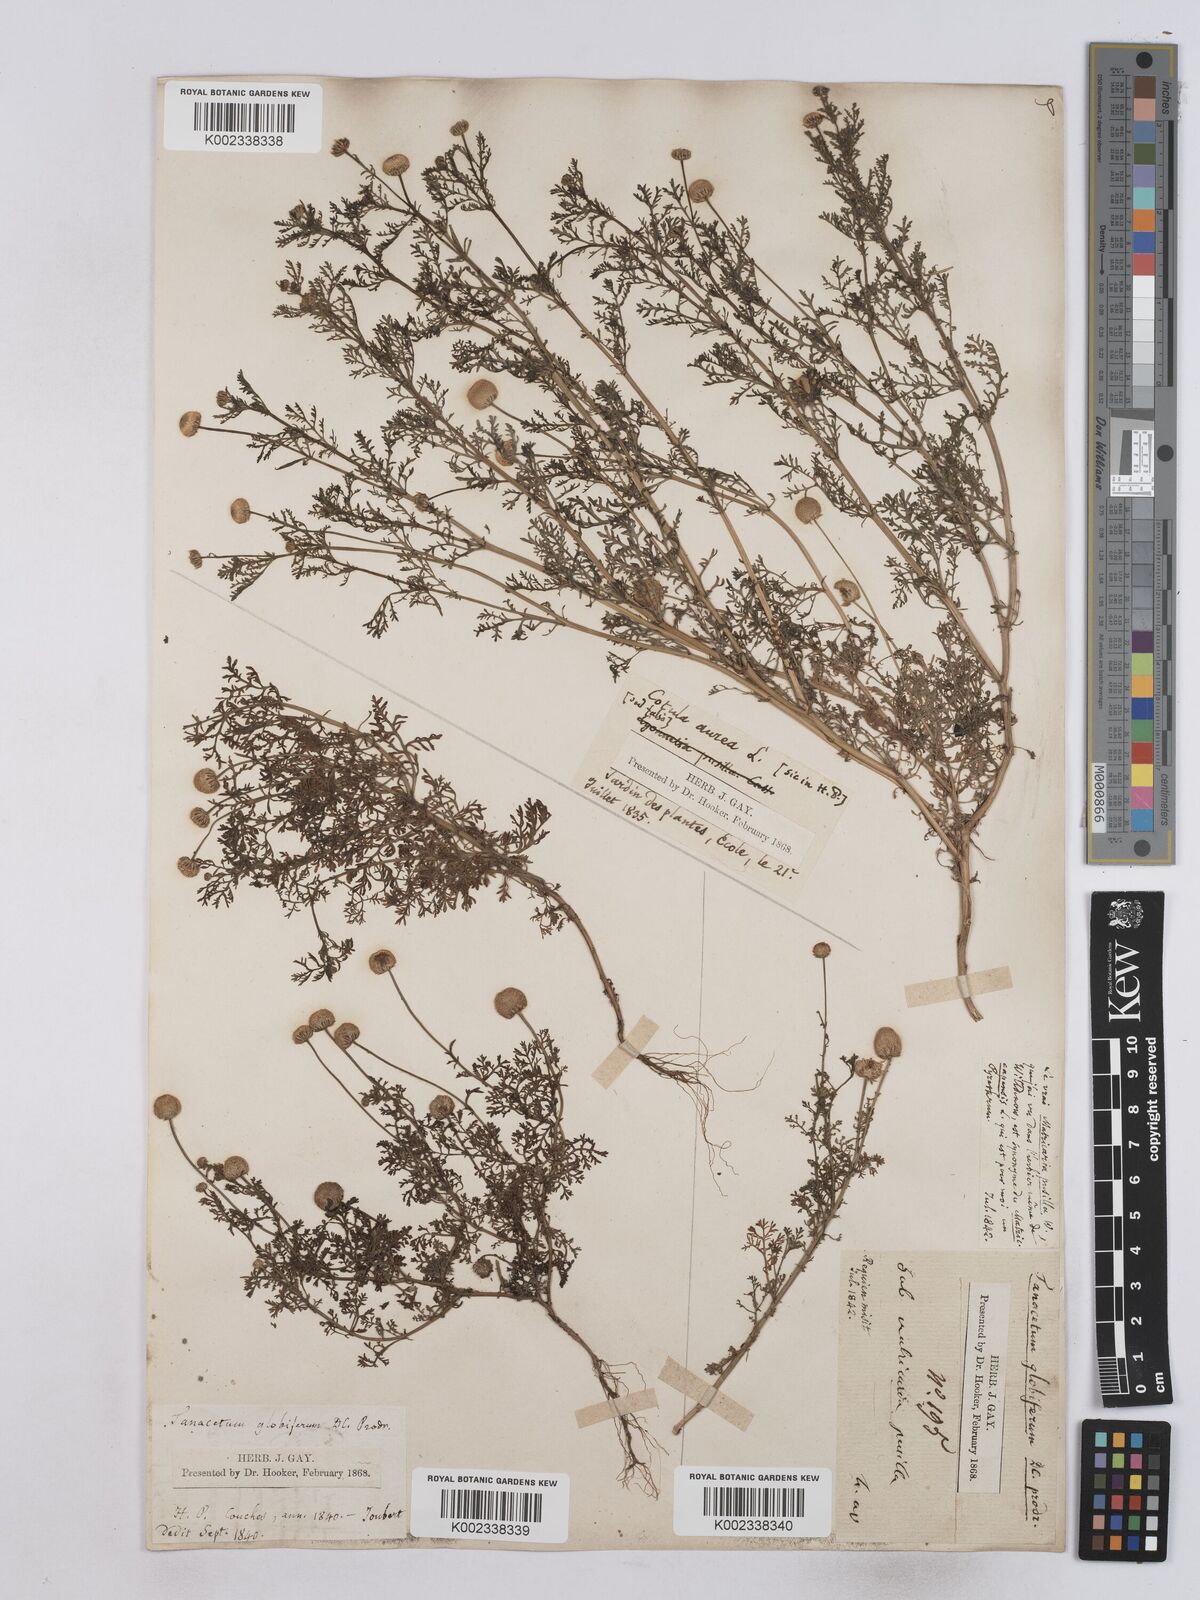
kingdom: Plantae
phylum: Tracheophyta
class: Magnoliopsida
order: Asterales
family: Asteraceae
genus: Matricaria
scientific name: Matricaria aurea
